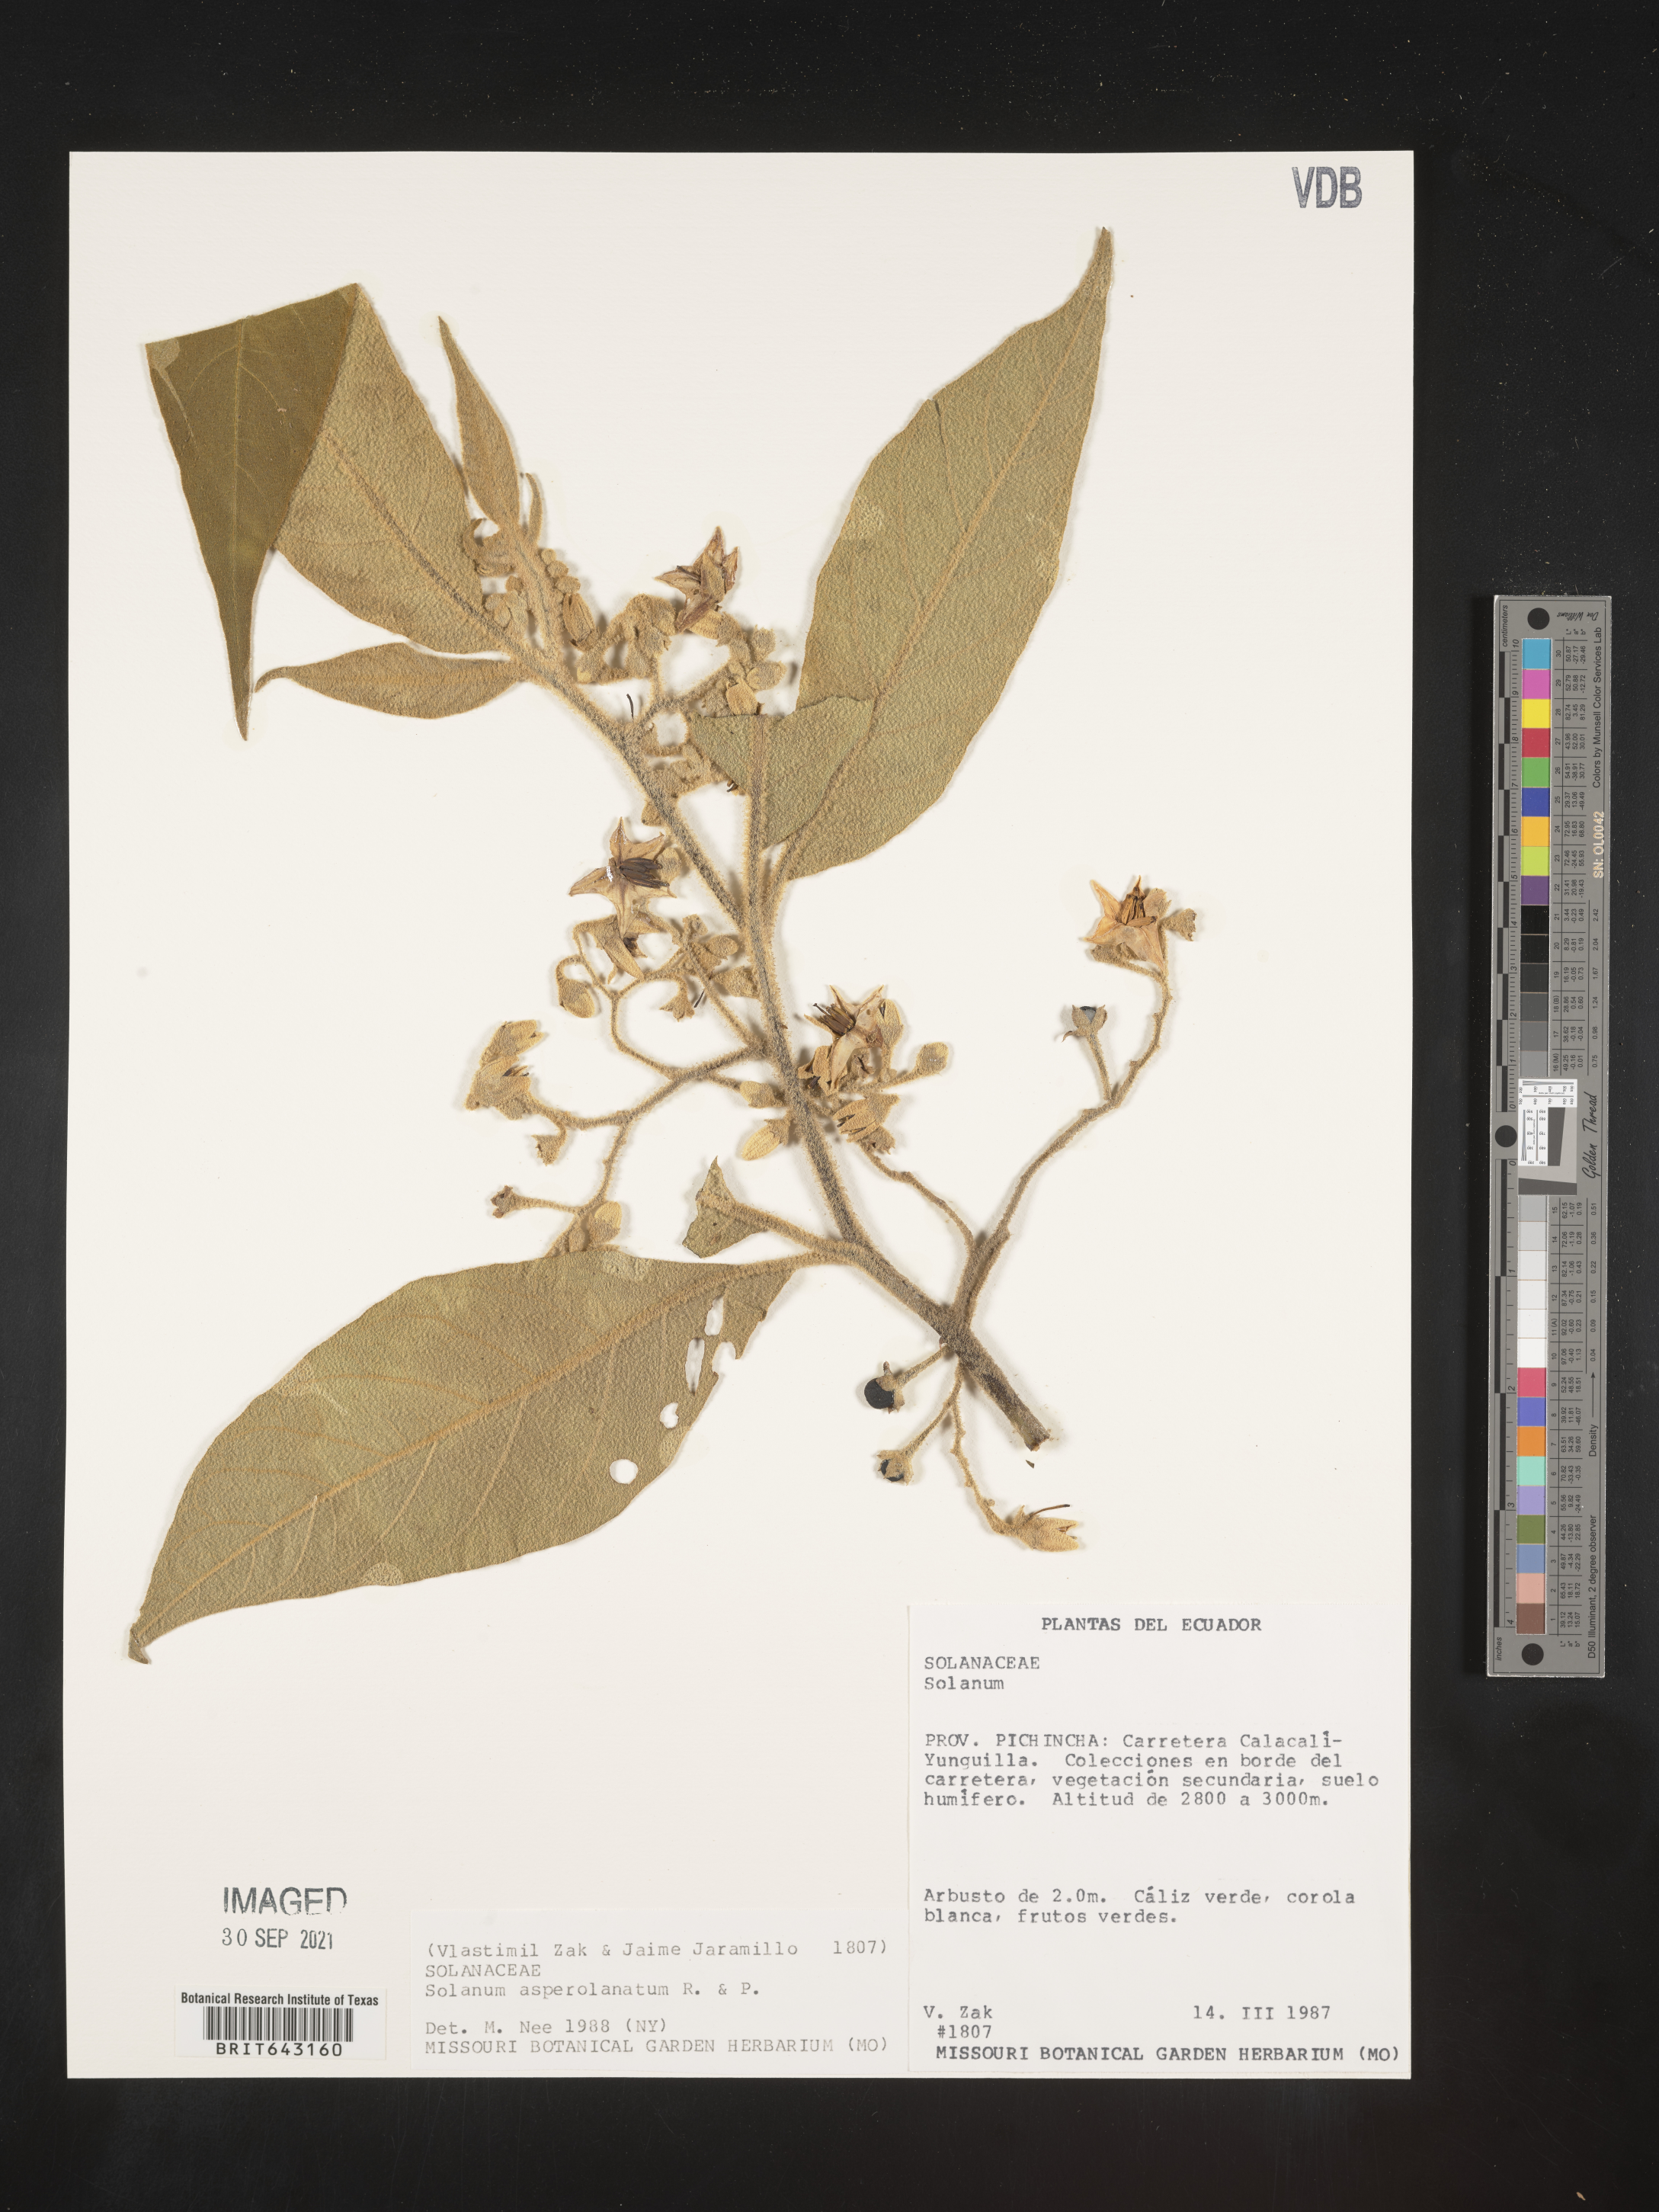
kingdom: Plantae
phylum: Tracheophyta
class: Magnoliopsida
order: Solanales
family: Solanaceae
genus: Solanum
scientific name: Solanum
